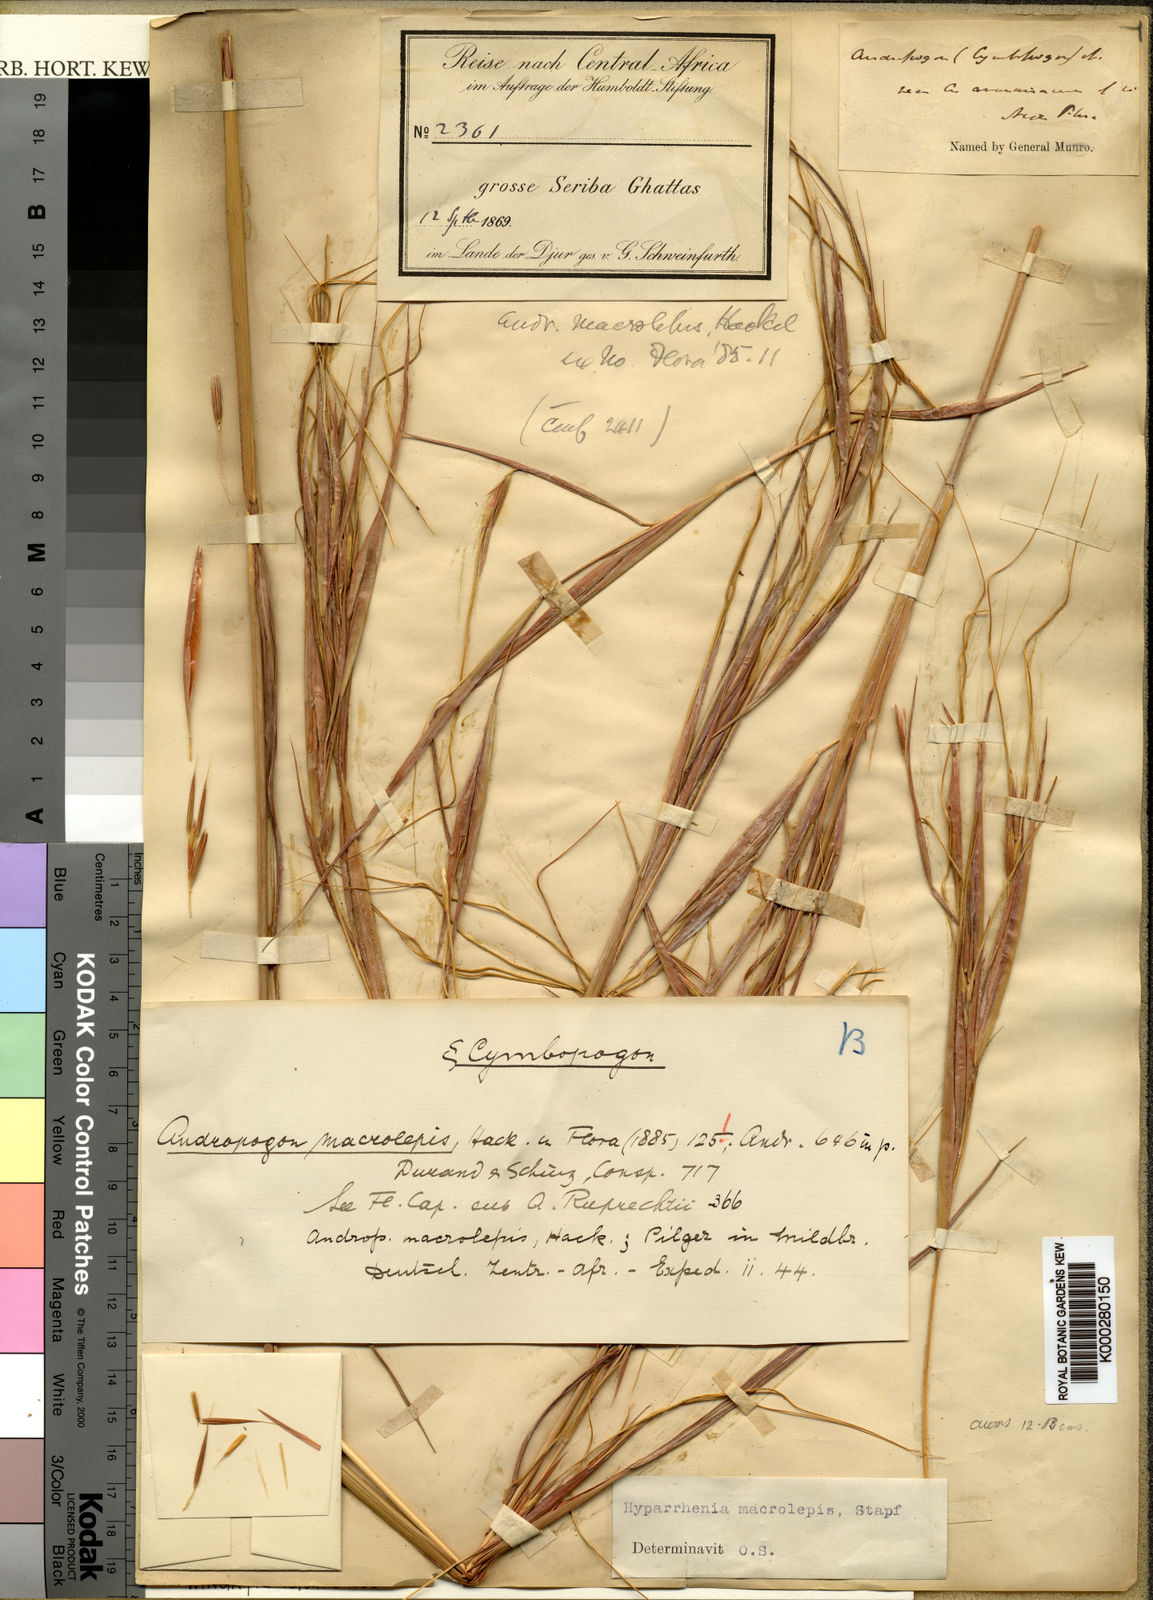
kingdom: Plantae
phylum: Tracheophyta
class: Liliopsida
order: Poales
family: Poaceae
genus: Hyperthelia
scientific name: Hyperthelia dissoluta
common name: Yellow thatching grass
